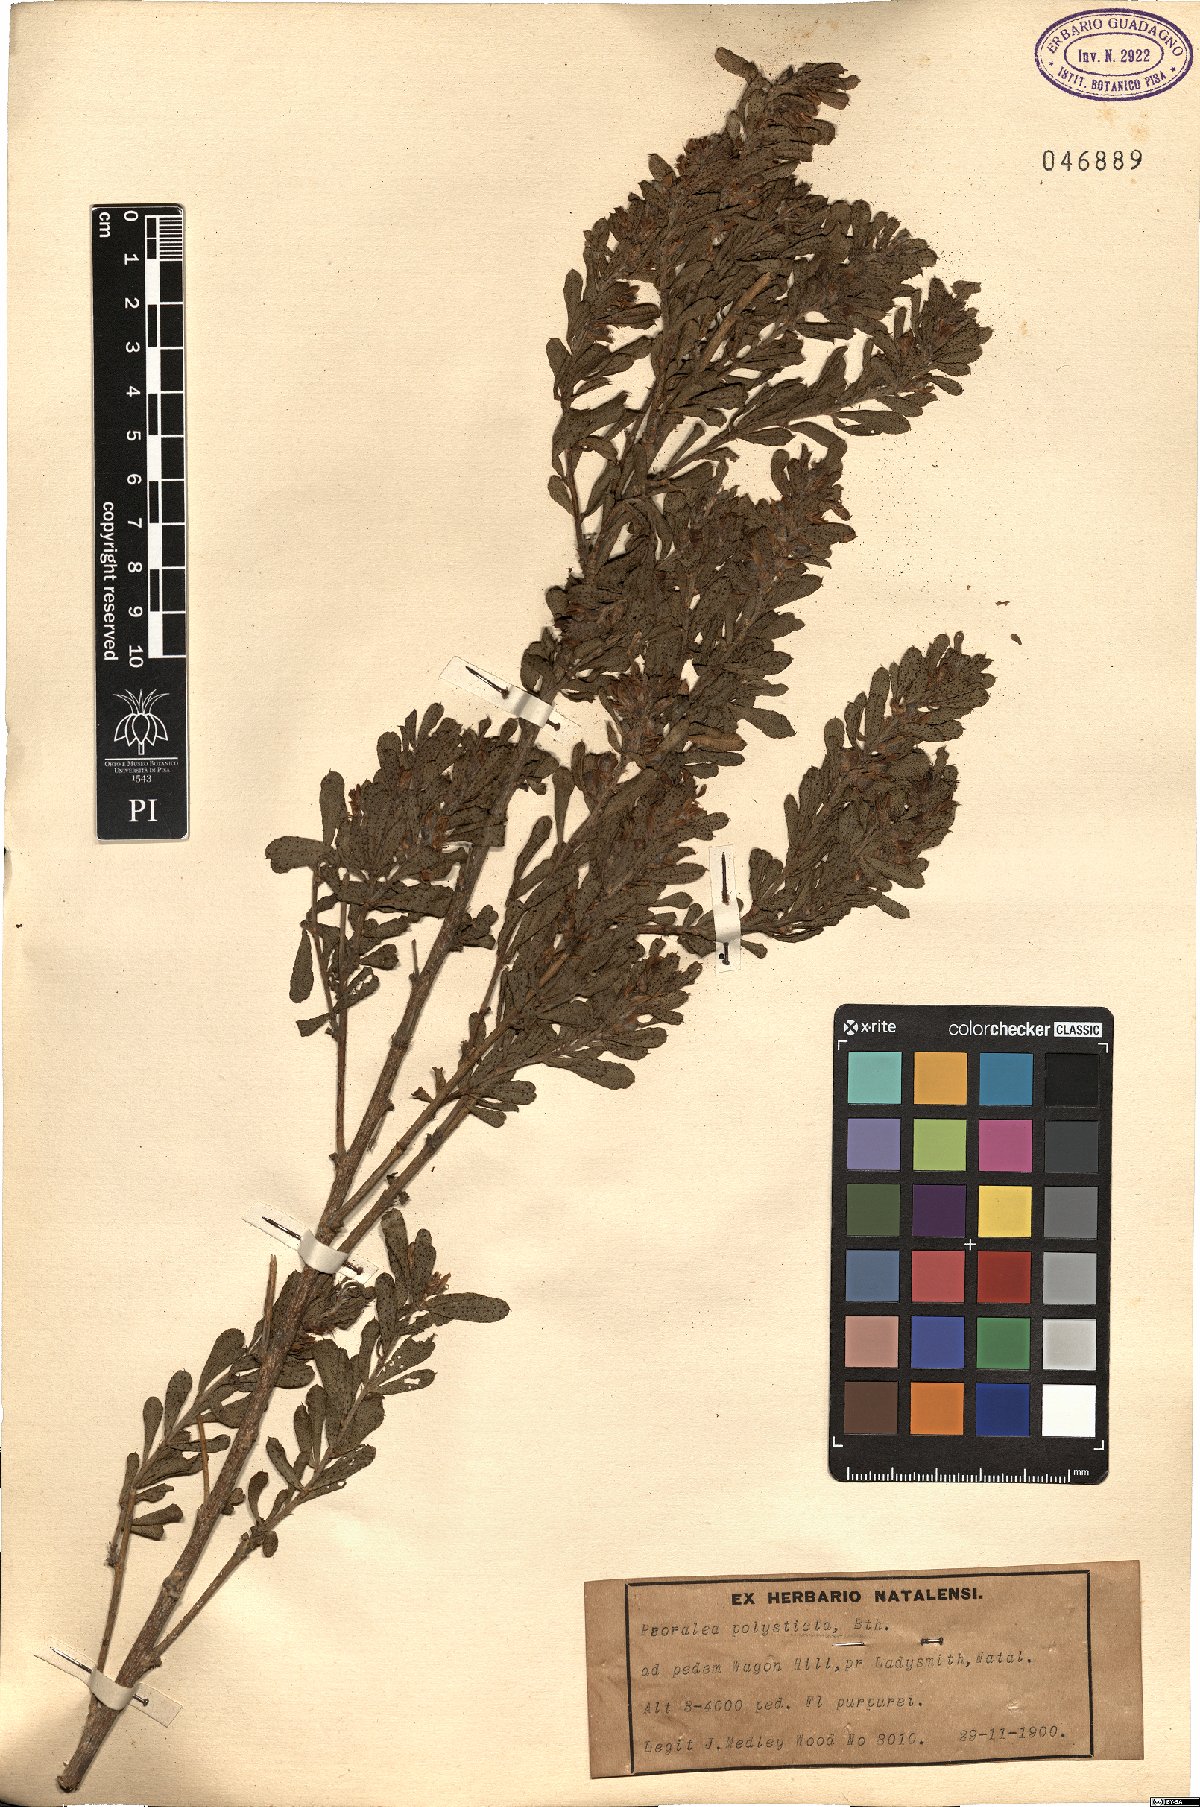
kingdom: Plantae
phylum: Tracheophyta
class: Magnoliopsida
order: Fabales
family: Fabaceae
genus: Psoralea
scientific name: Psoralea polysticta
